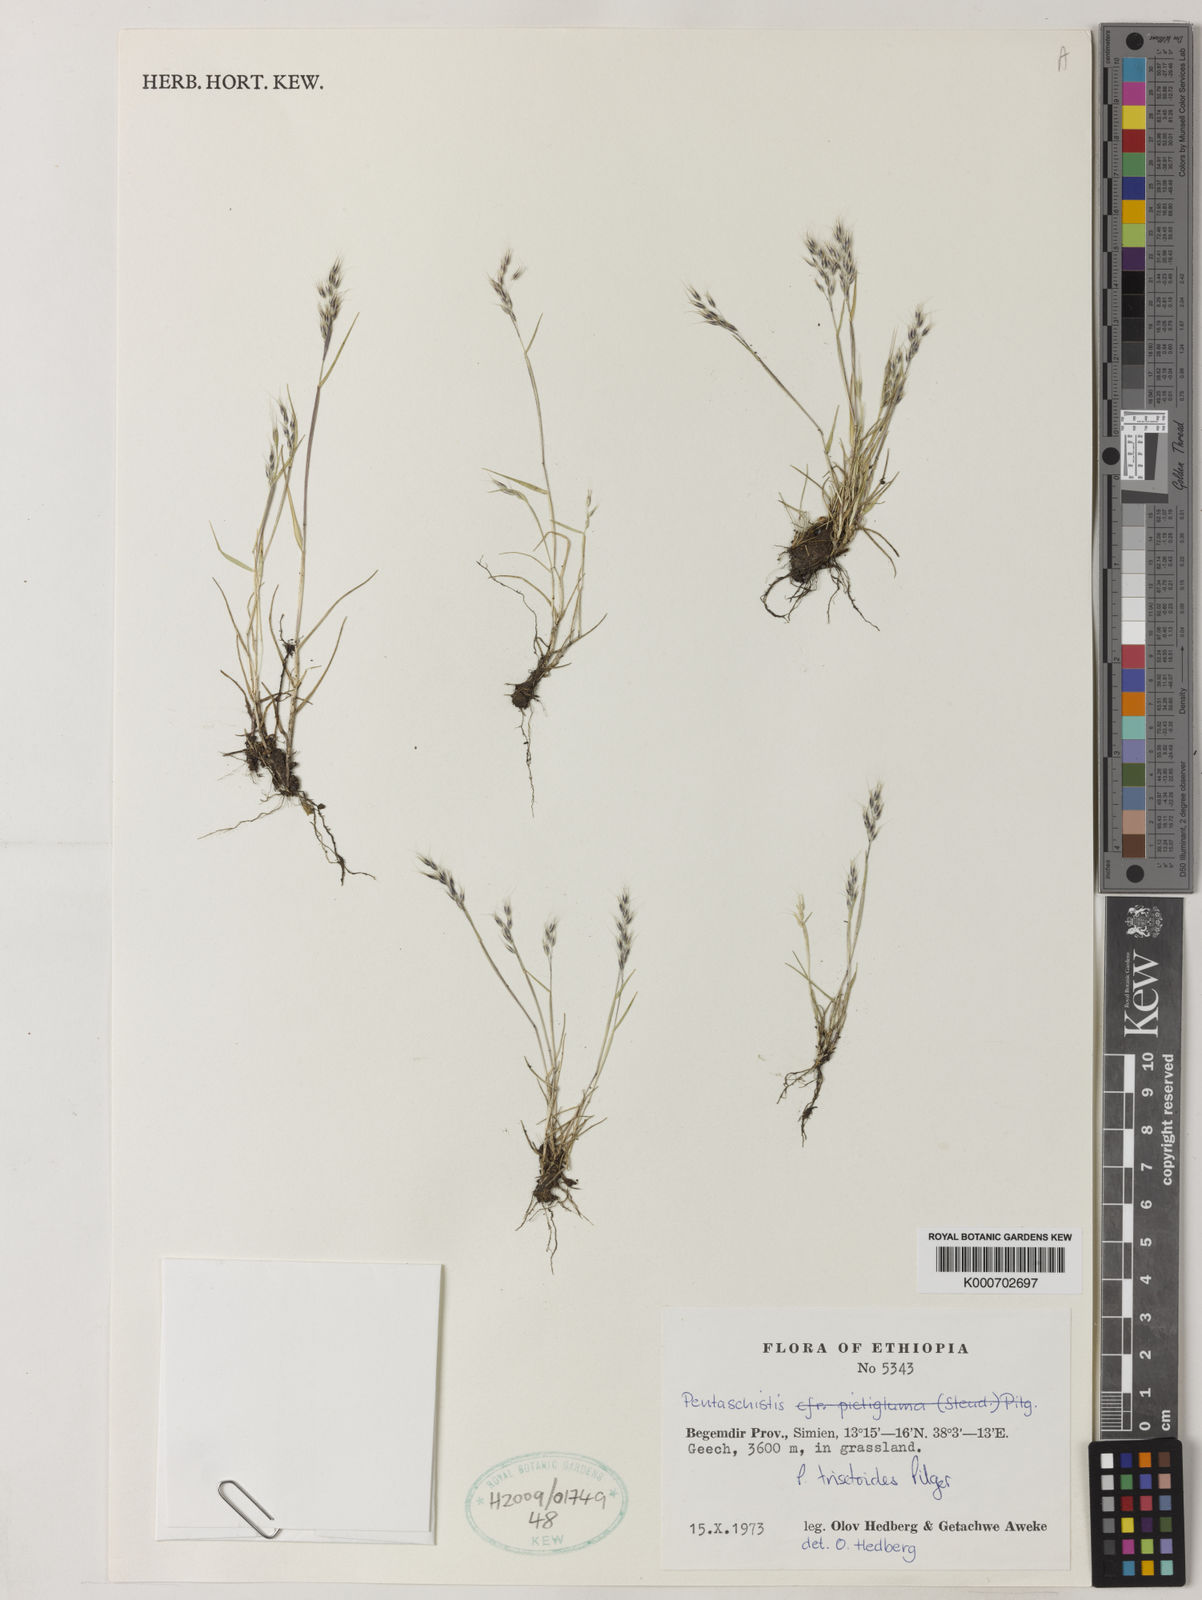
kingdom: Plantae
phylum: Tracheophyta
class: Liliopsida
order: Poales
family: Poaceae
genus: Pentaschistis
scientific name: Pentaschistis
